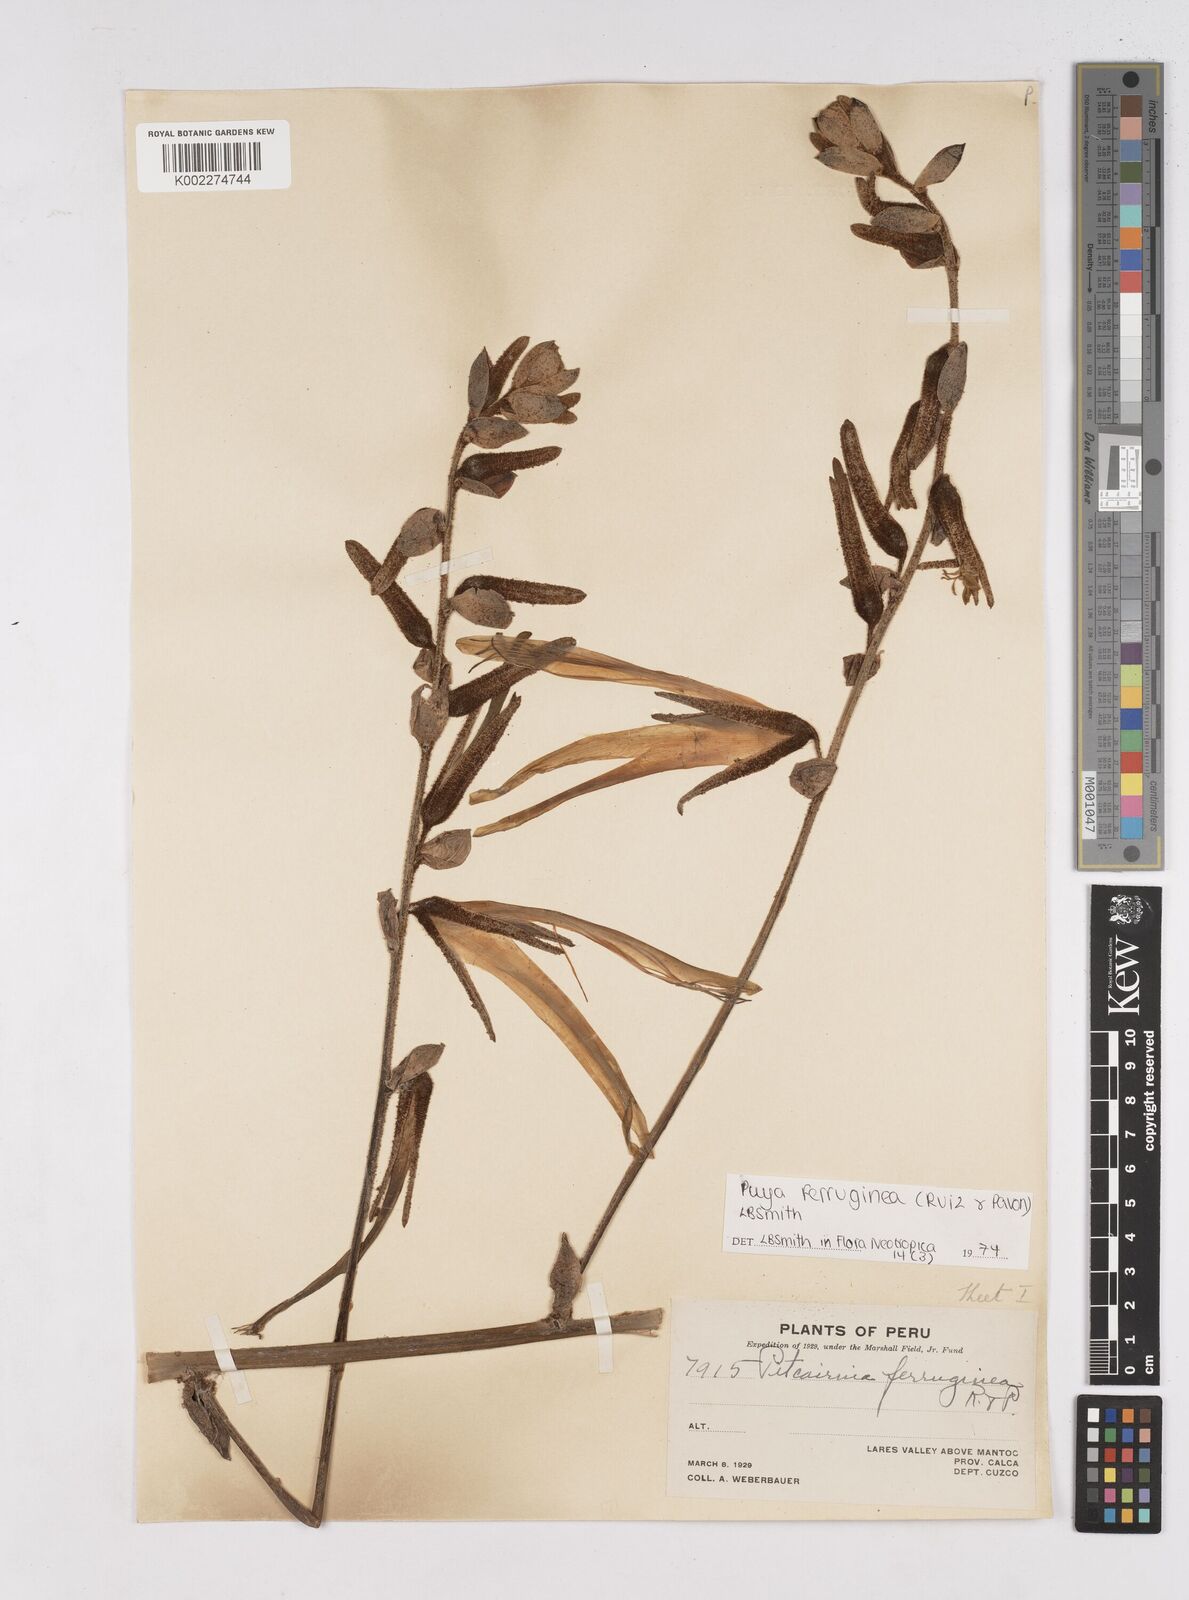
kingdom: Plantae
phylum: Tracheophyta
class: Liliopsida
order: Poales
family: Bromeliaceae
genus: Puya
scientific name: Puya ferruginea
